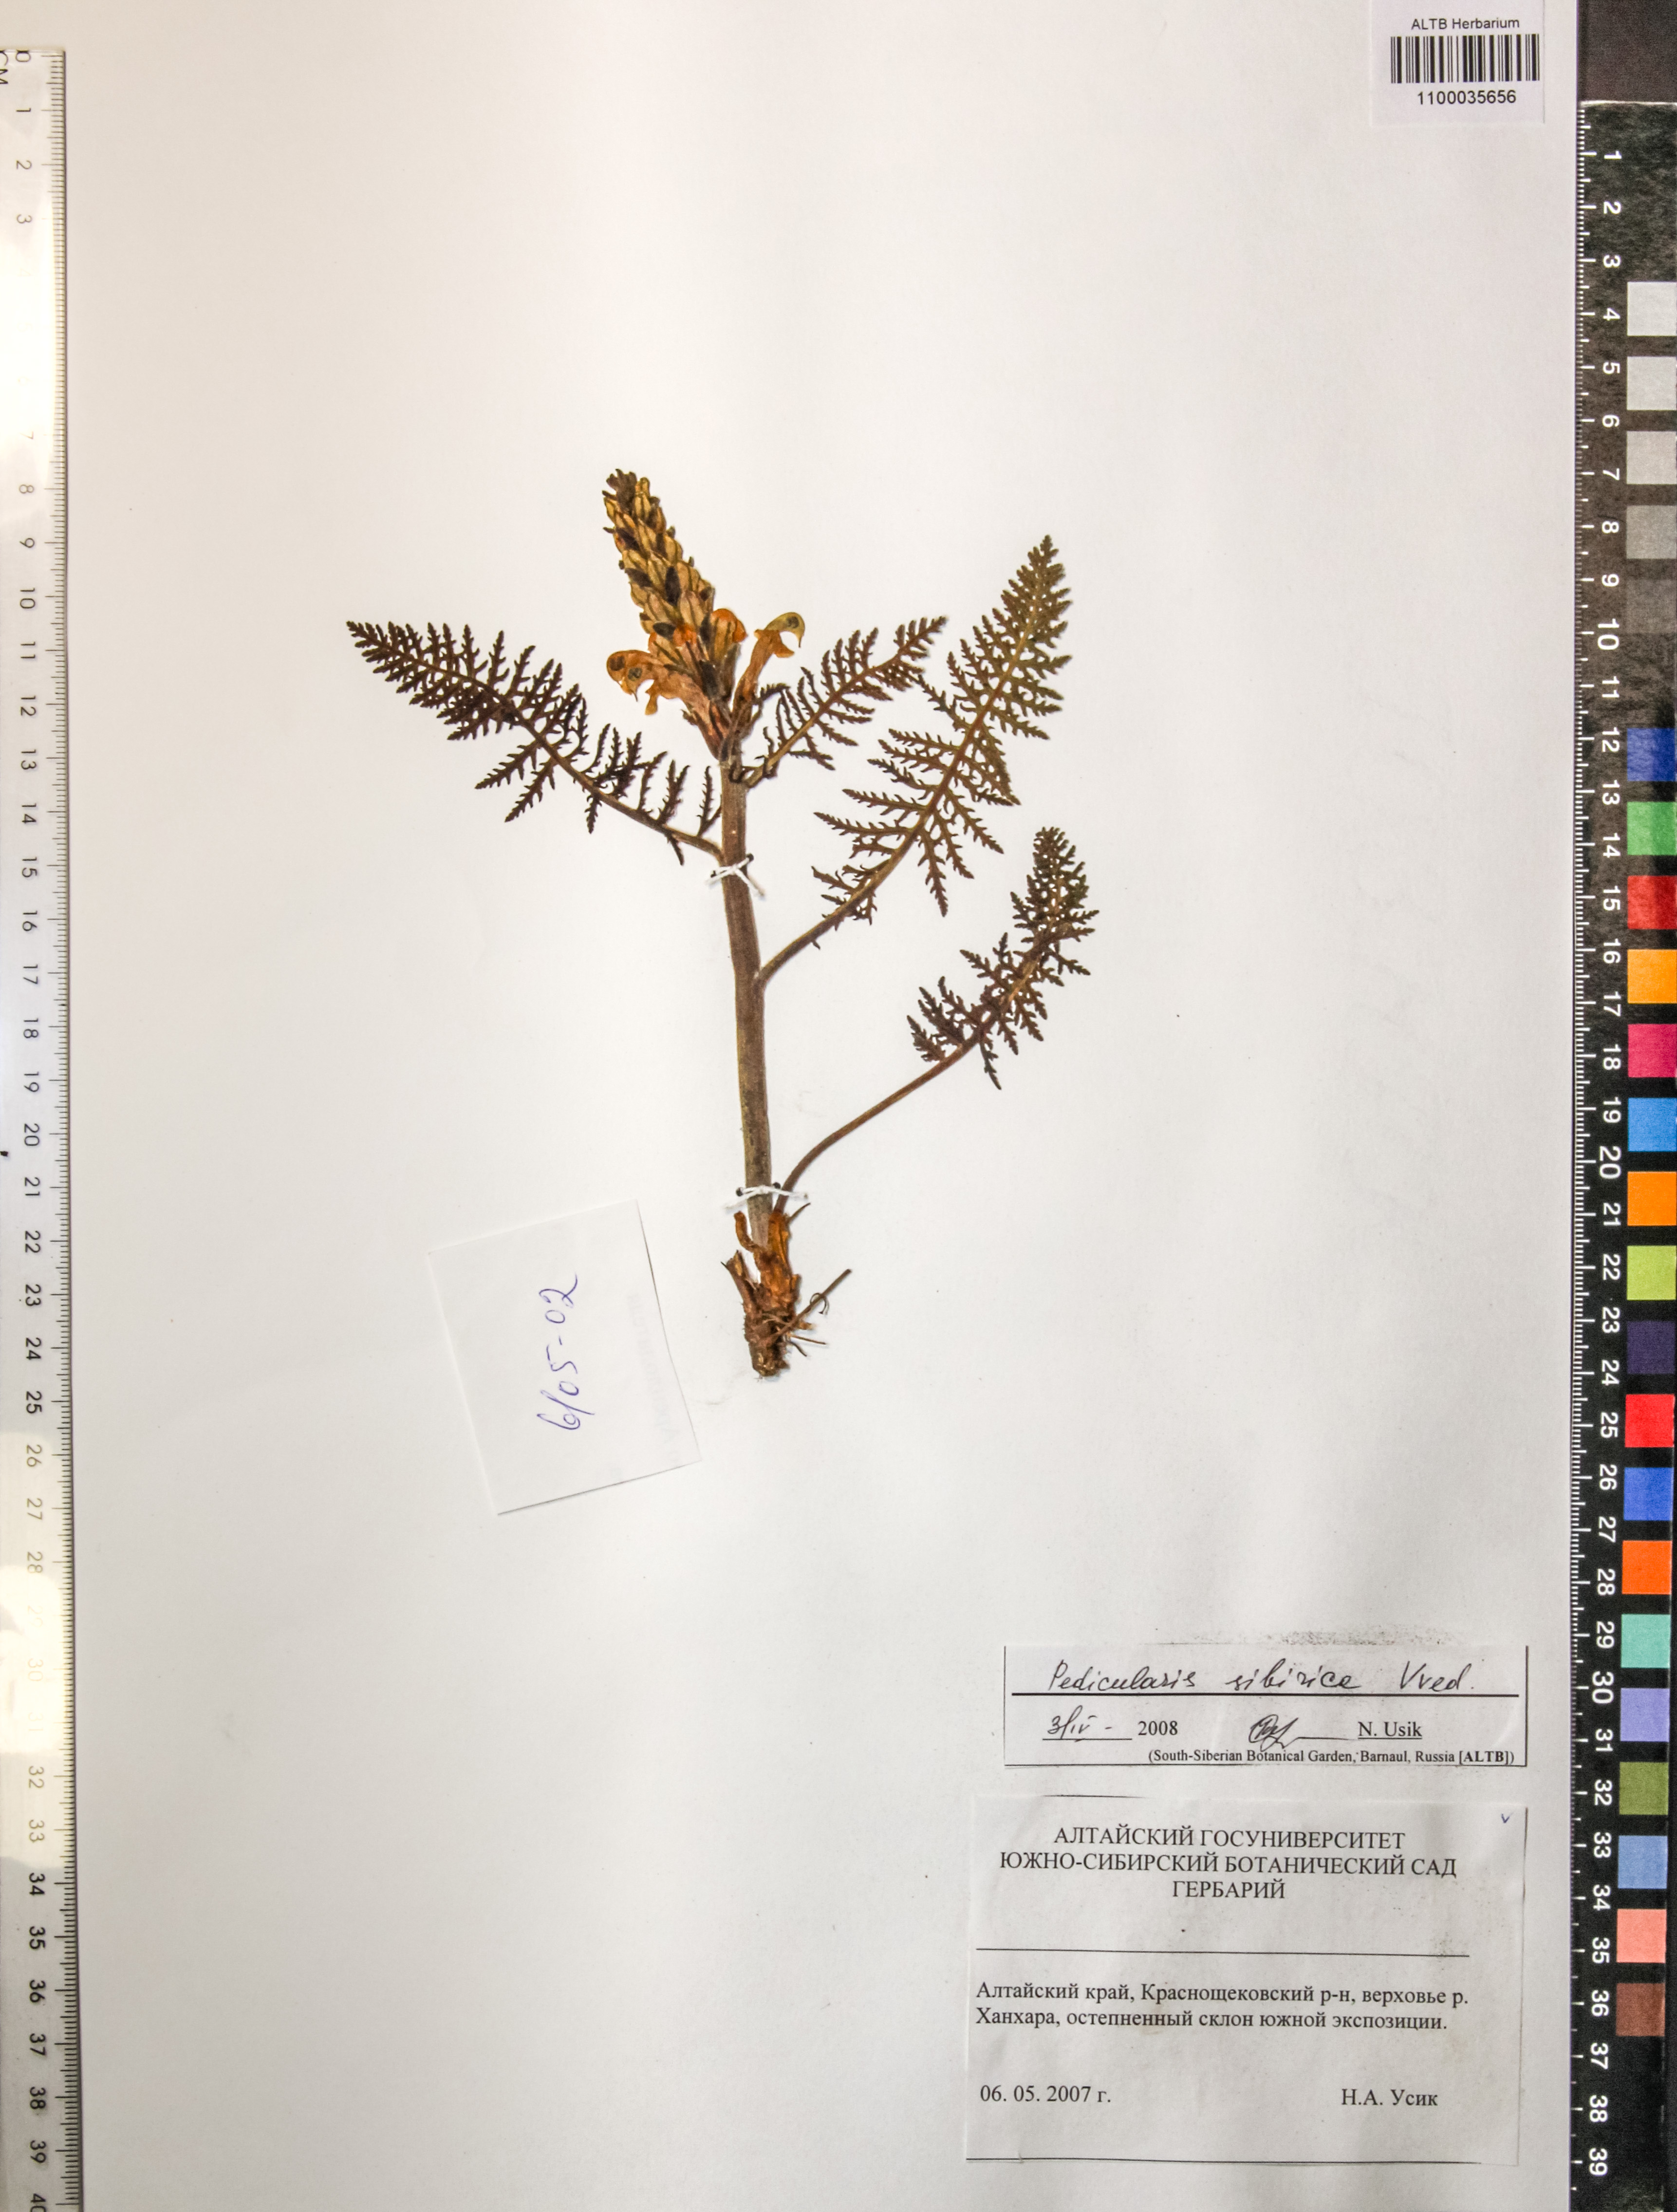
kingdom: Plantae
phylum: Tracheophyta
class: Magnoliopsida
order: Lamiales
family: Orobanchaceae
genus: Pedicularis
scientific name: Pedicularis sibirica
